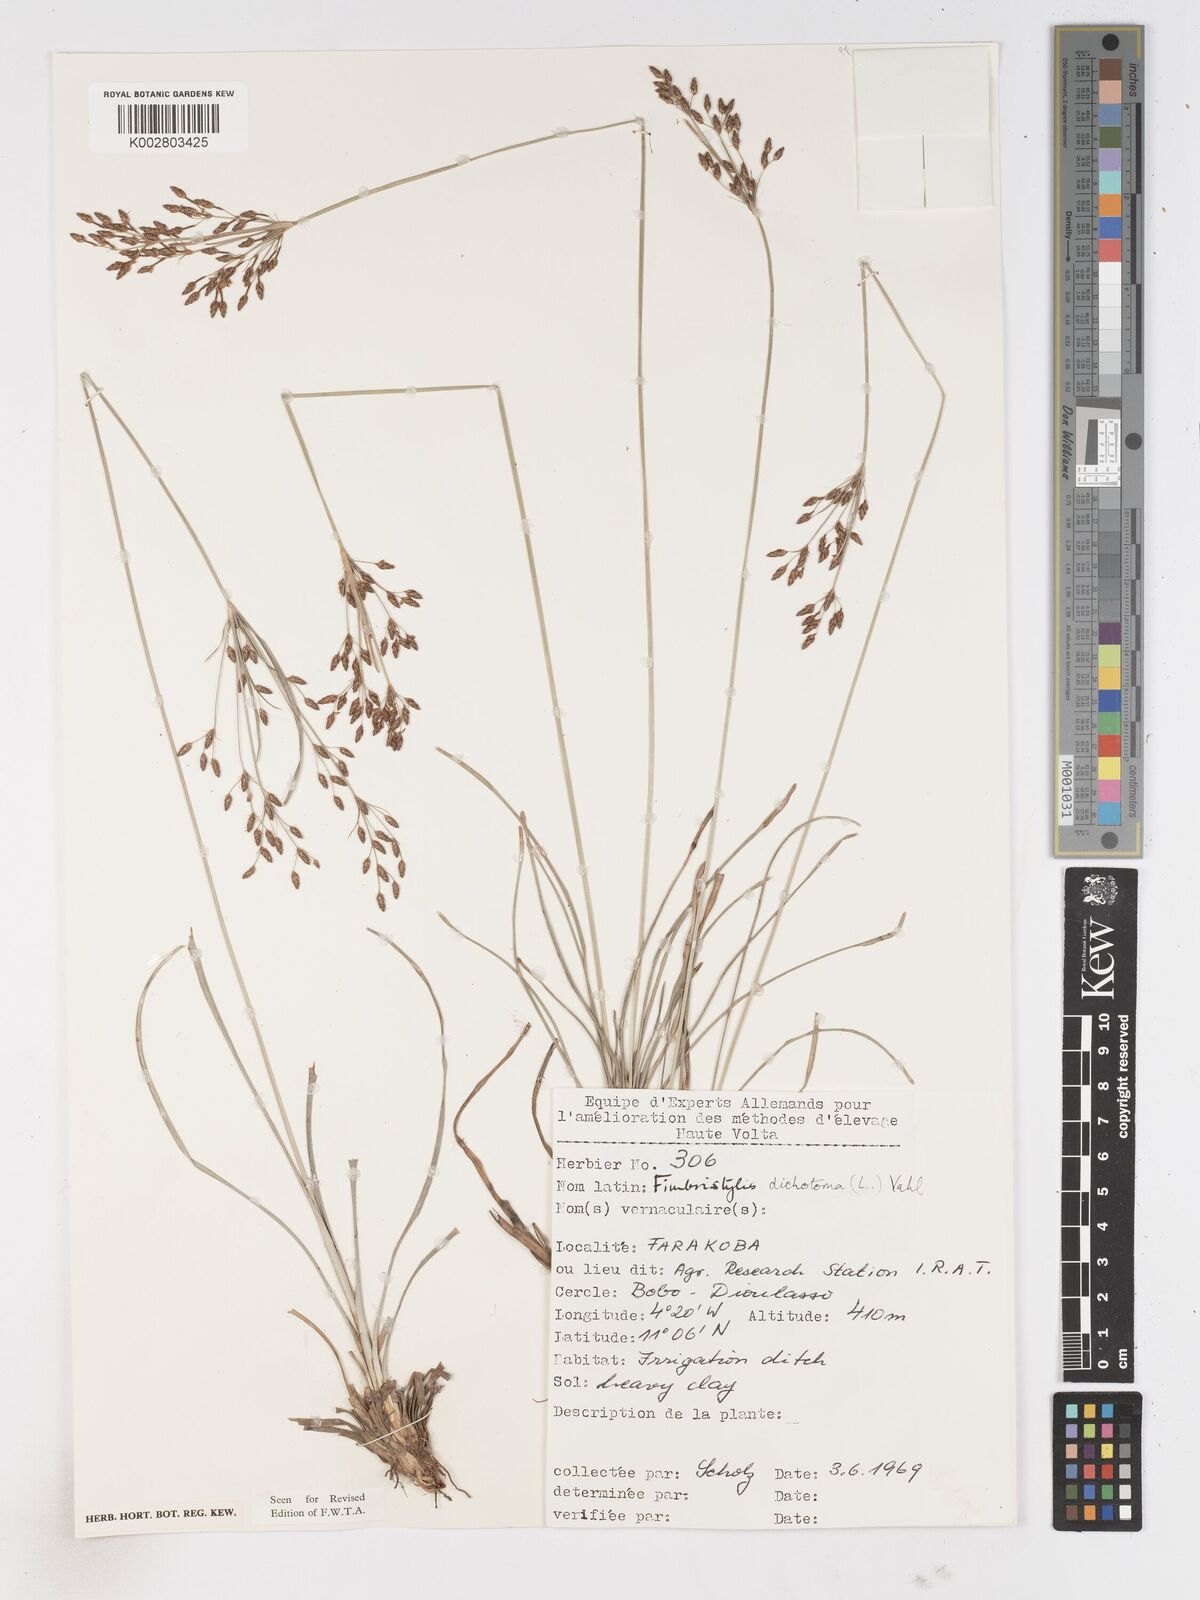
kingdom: Plantae
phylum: Tracheophyta
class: Liliopsida
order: Poales
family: Cyperaceae
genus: Fimbristylis
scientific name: Fimbristylis dichotoma
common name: Forked fimbry
